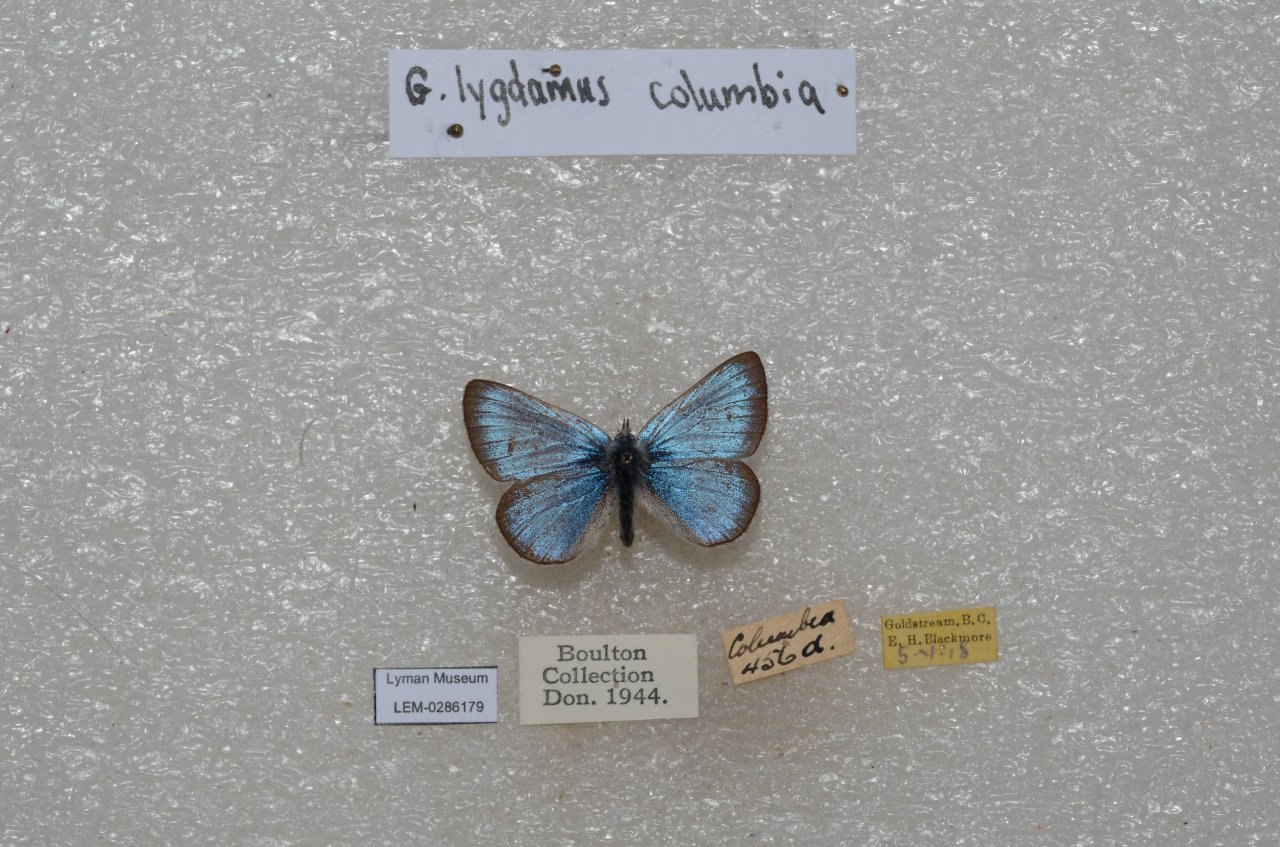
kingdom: Animalia
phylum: Arthropoda
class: Insecta
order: Lepidoptera
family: Lycaenidae
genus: Glaucopsyche
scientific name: Glaucopsyche lygdamus
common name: Silvery Blue
